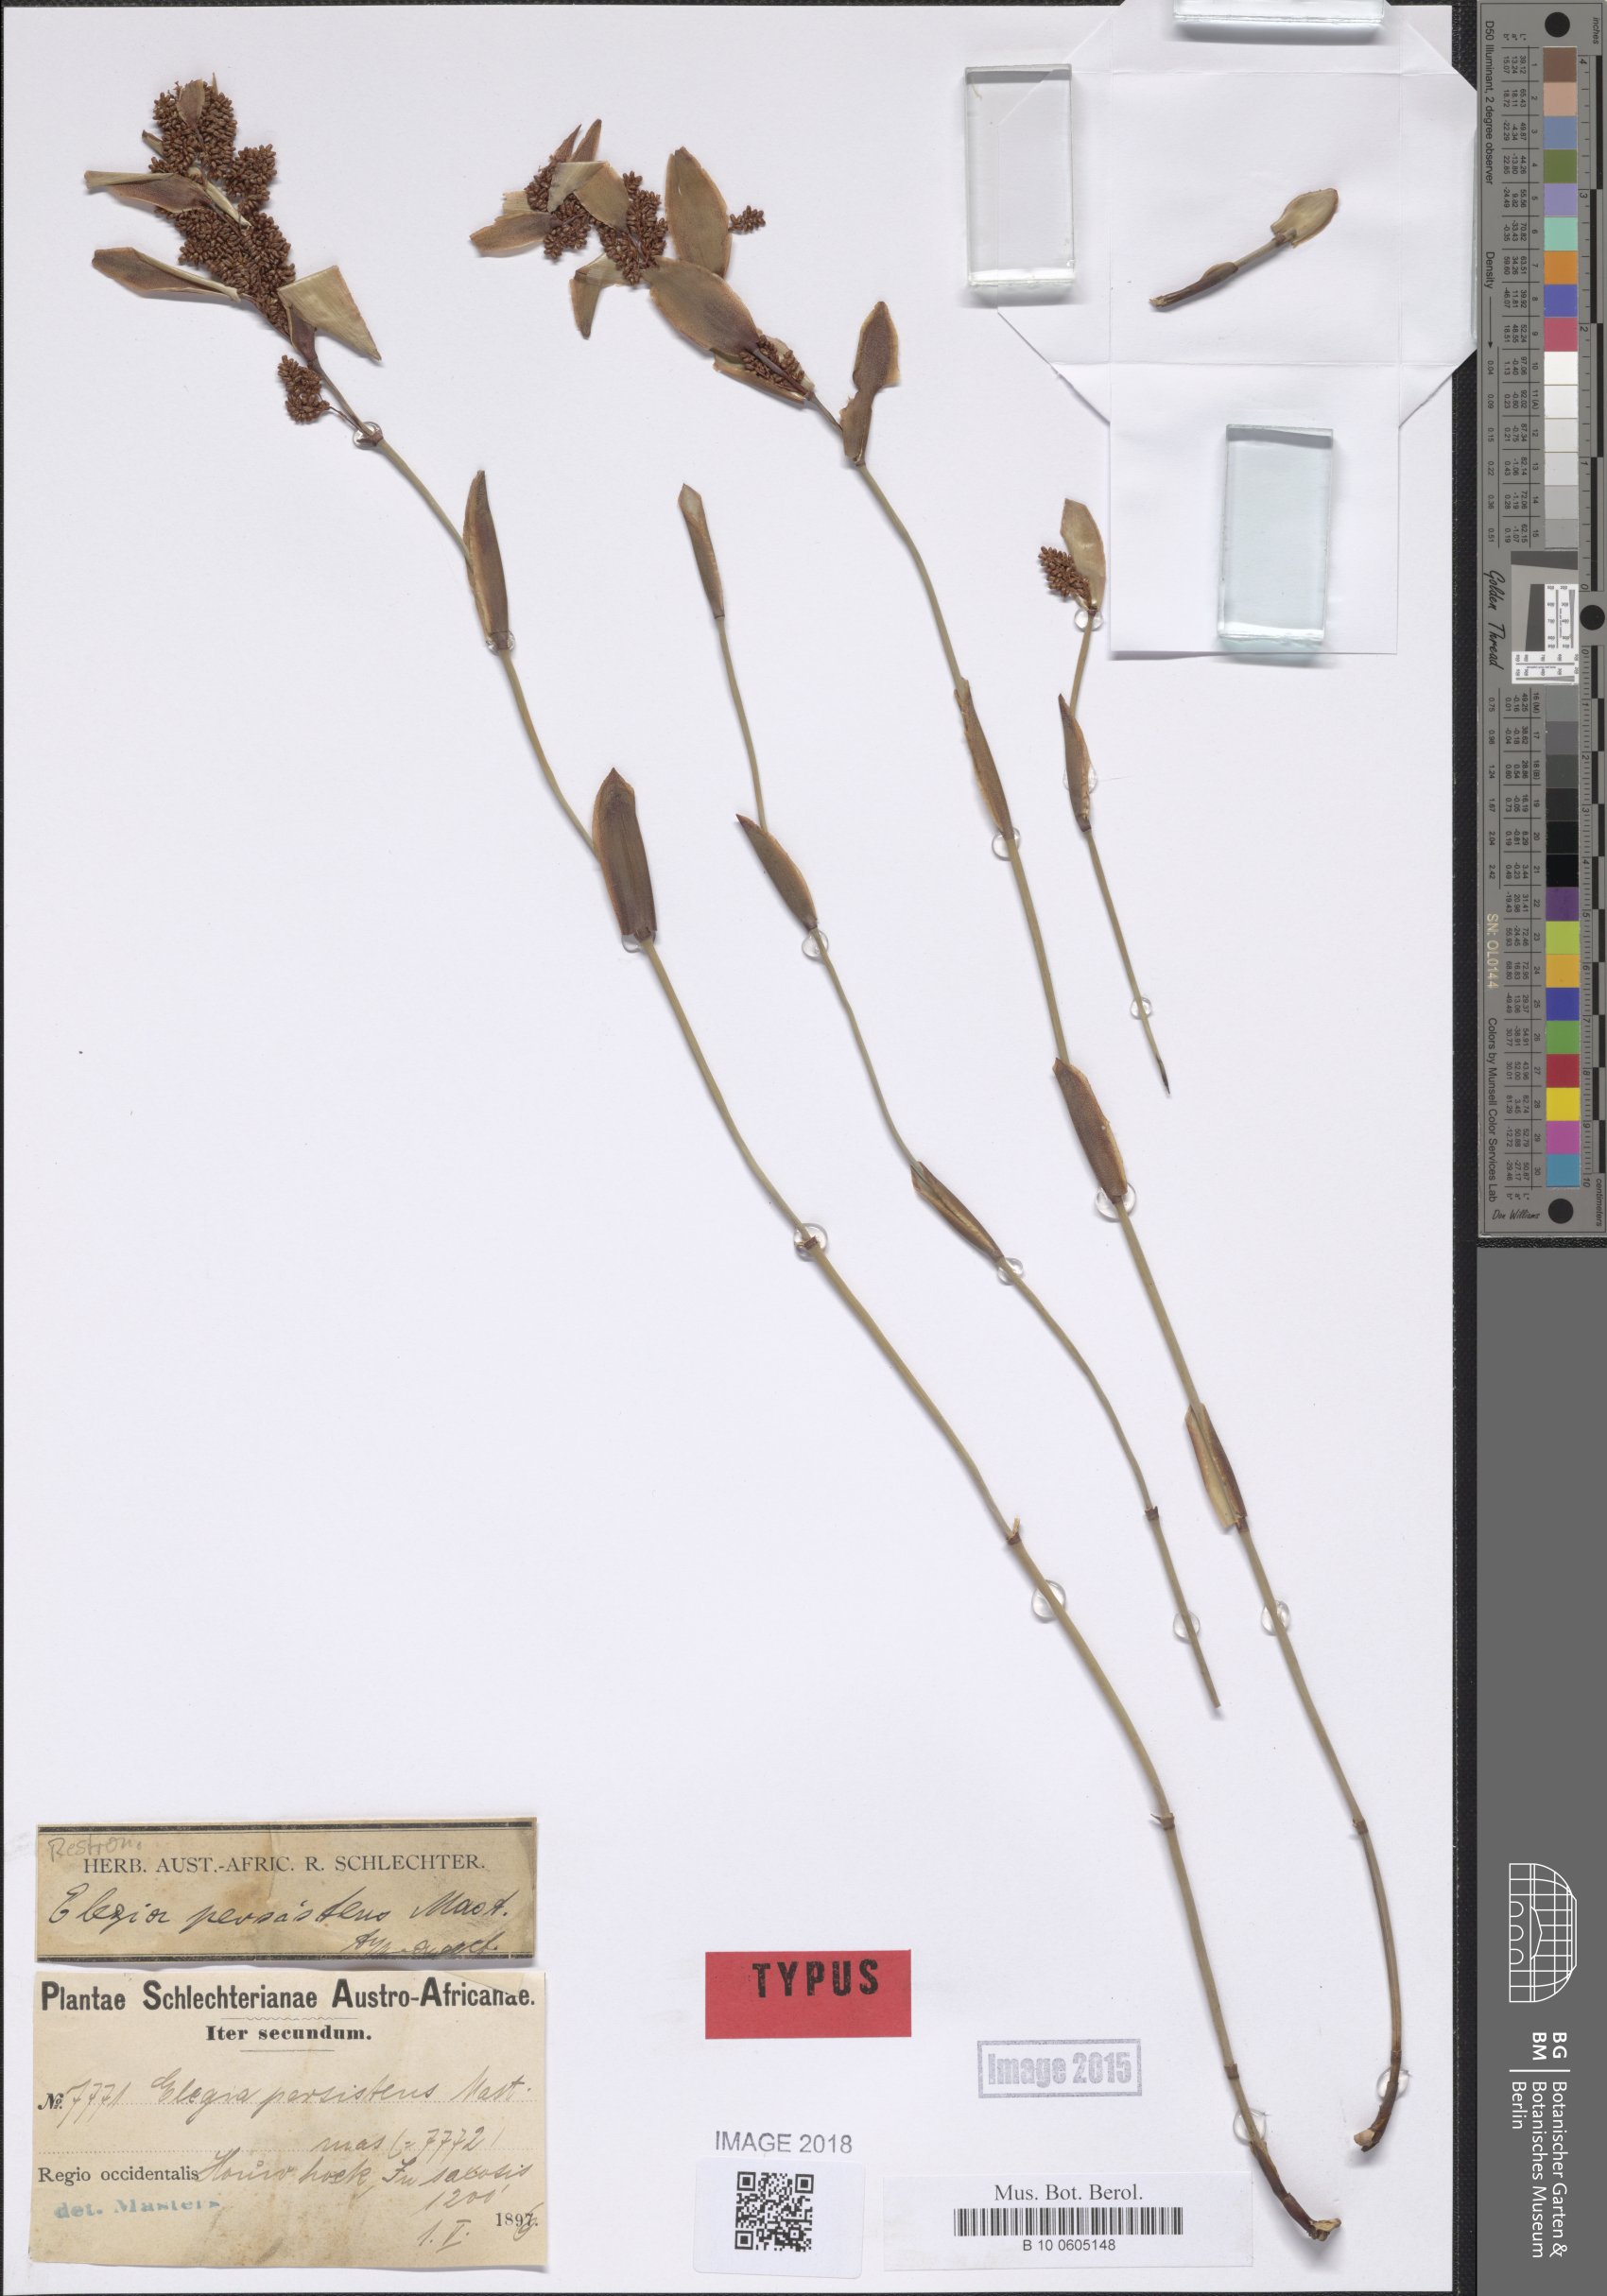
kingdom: Plantae
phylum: Tracheophyta
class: Liliopsida
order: Poales
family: Restionaceae
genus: Elegia
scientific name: Elegia persistens
